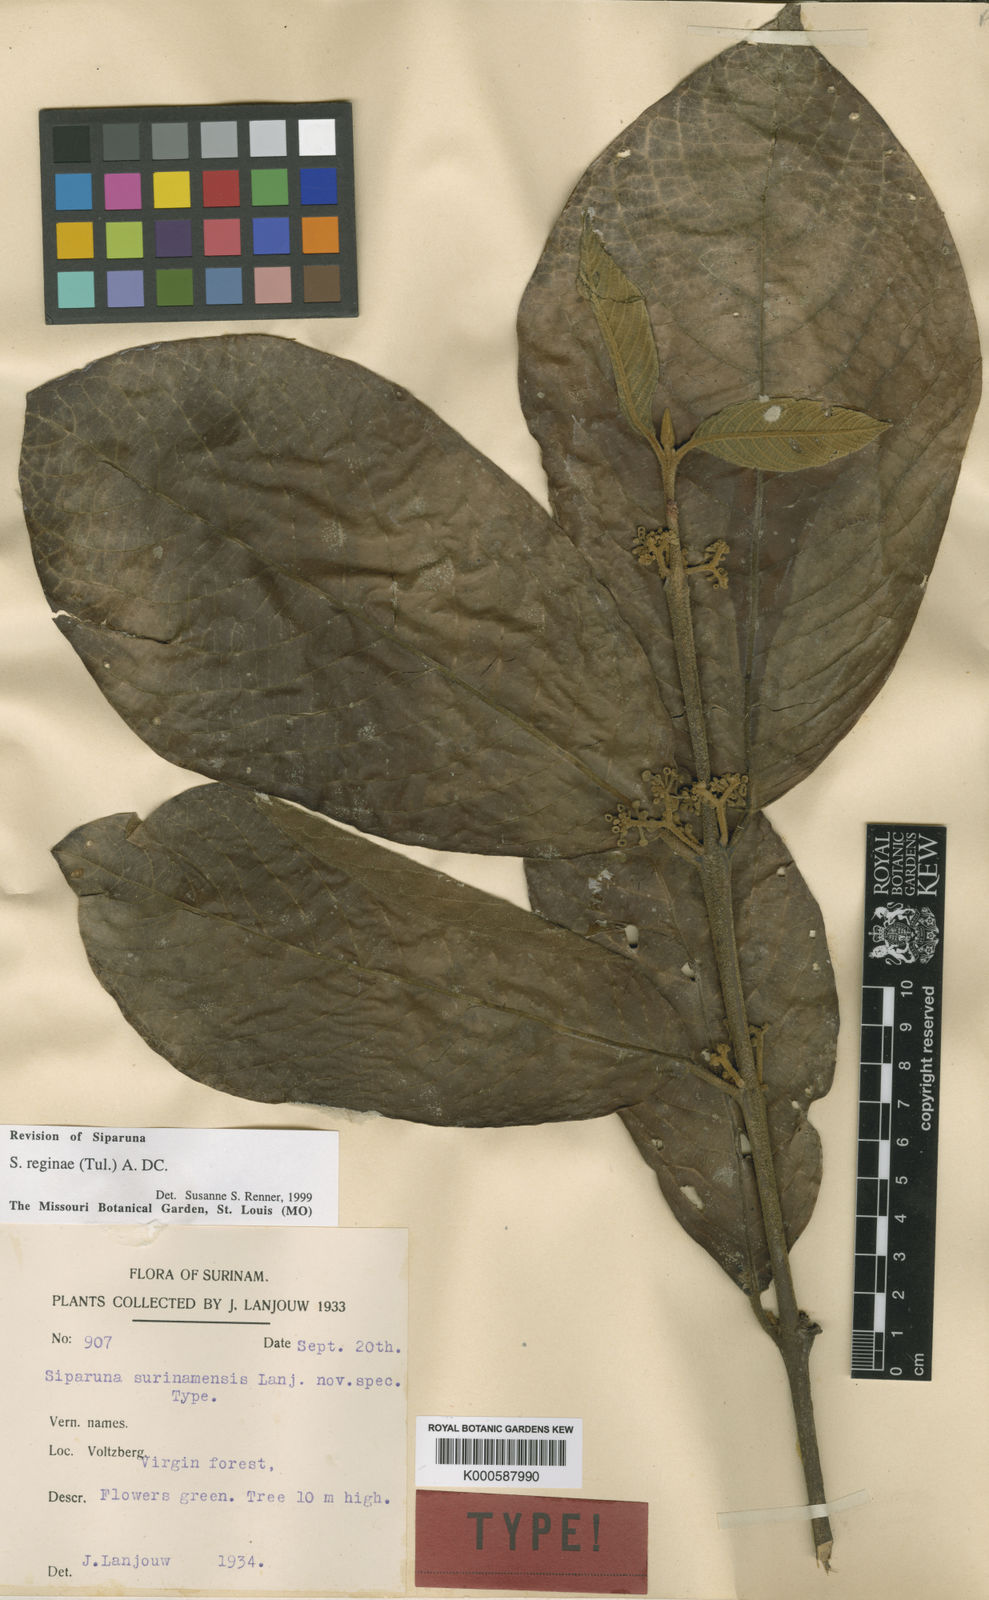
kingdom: Plantae
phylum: Tracheophyta
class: Magnoliopsida
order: Laurales
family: Siparunaceae
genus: Siparuna
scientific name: Siparuna reginae
